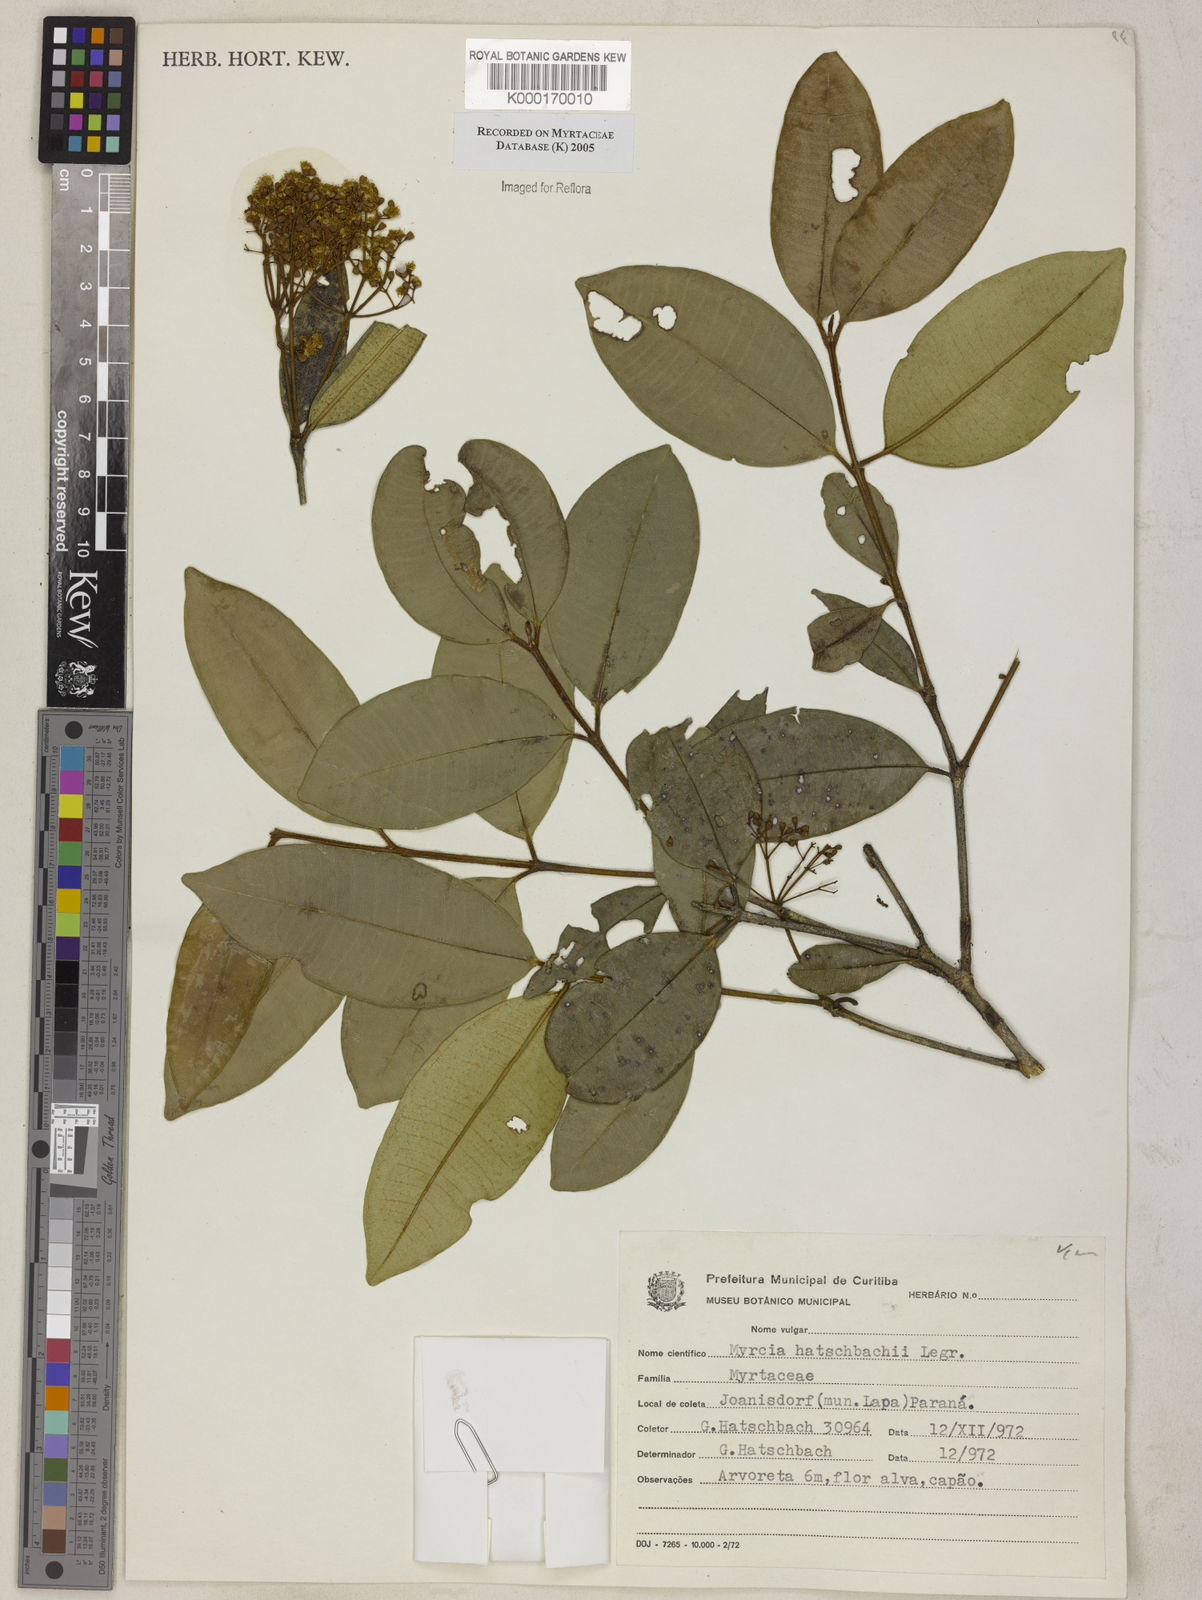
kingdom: Plantae
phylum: Tracheophyta
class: Magnoliopsida
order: Myrtales
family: Myrtaceae
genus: Myrcia
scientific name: Myrcia hatschbachii
